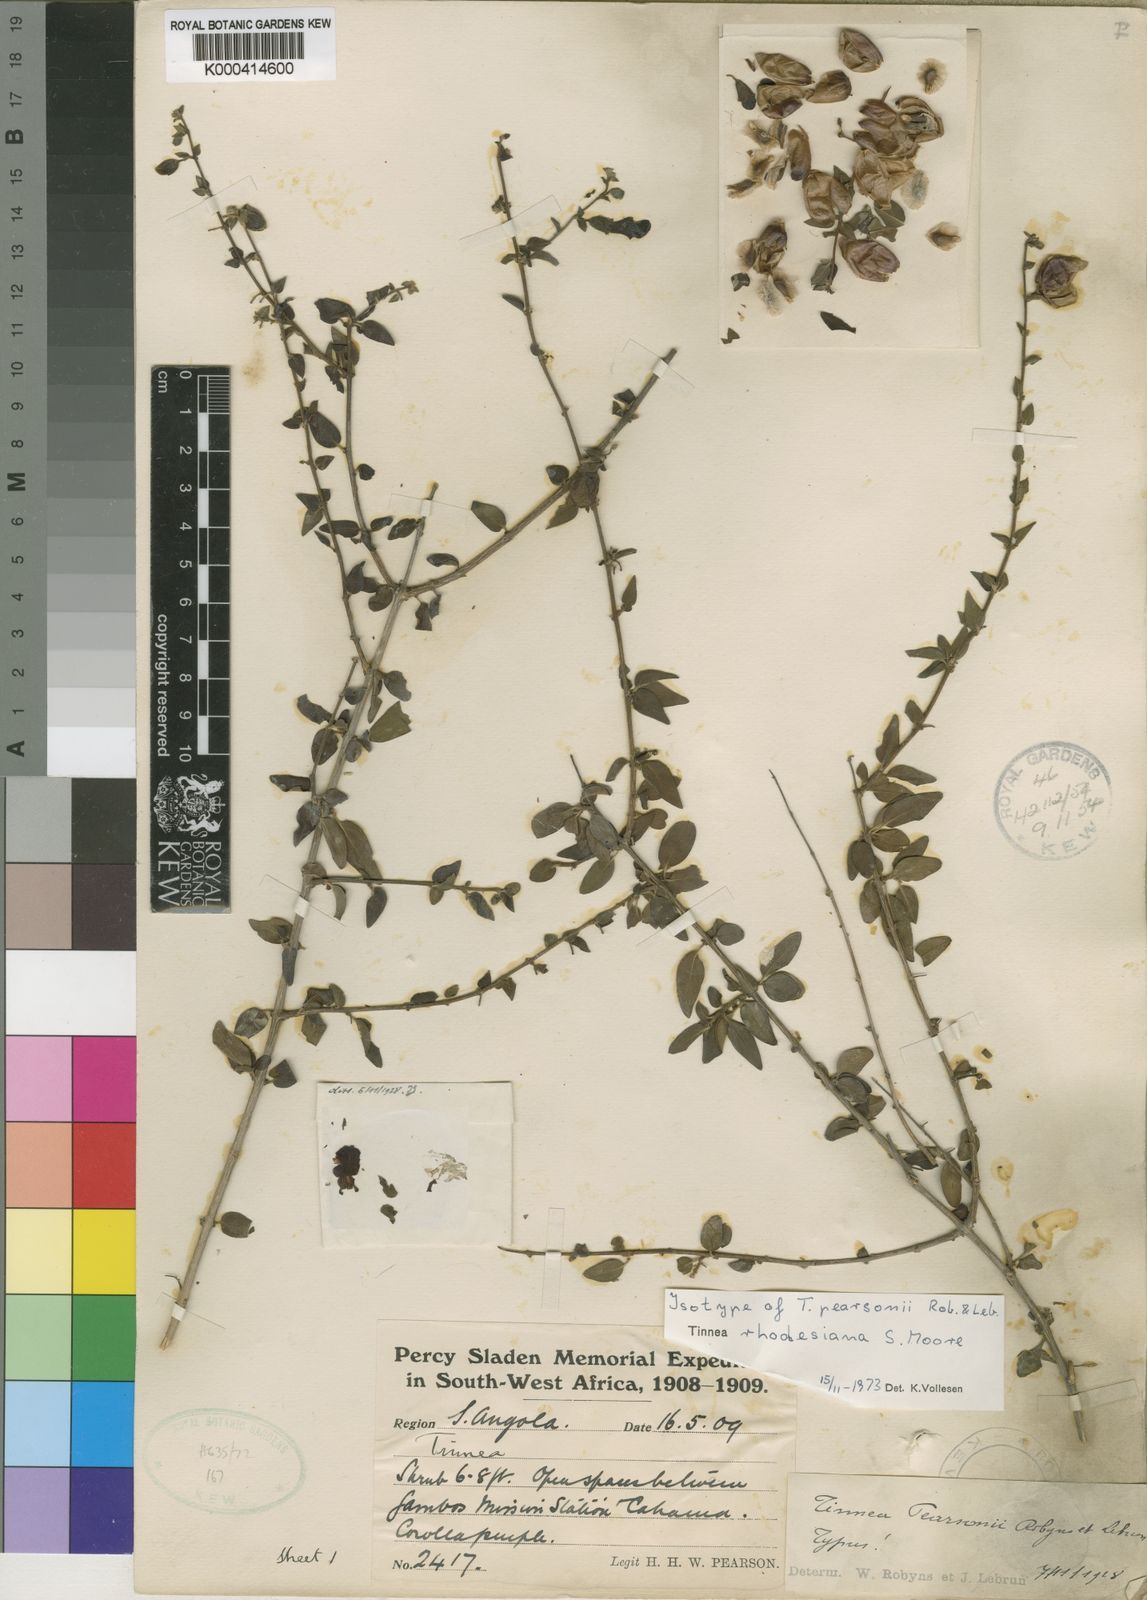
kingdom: Plantae
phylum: Tracheophyta
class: Magnoliopsida
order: Lamiales
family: Lamiaceae
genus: Tinnea
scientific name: Tinnea rhodesiana
